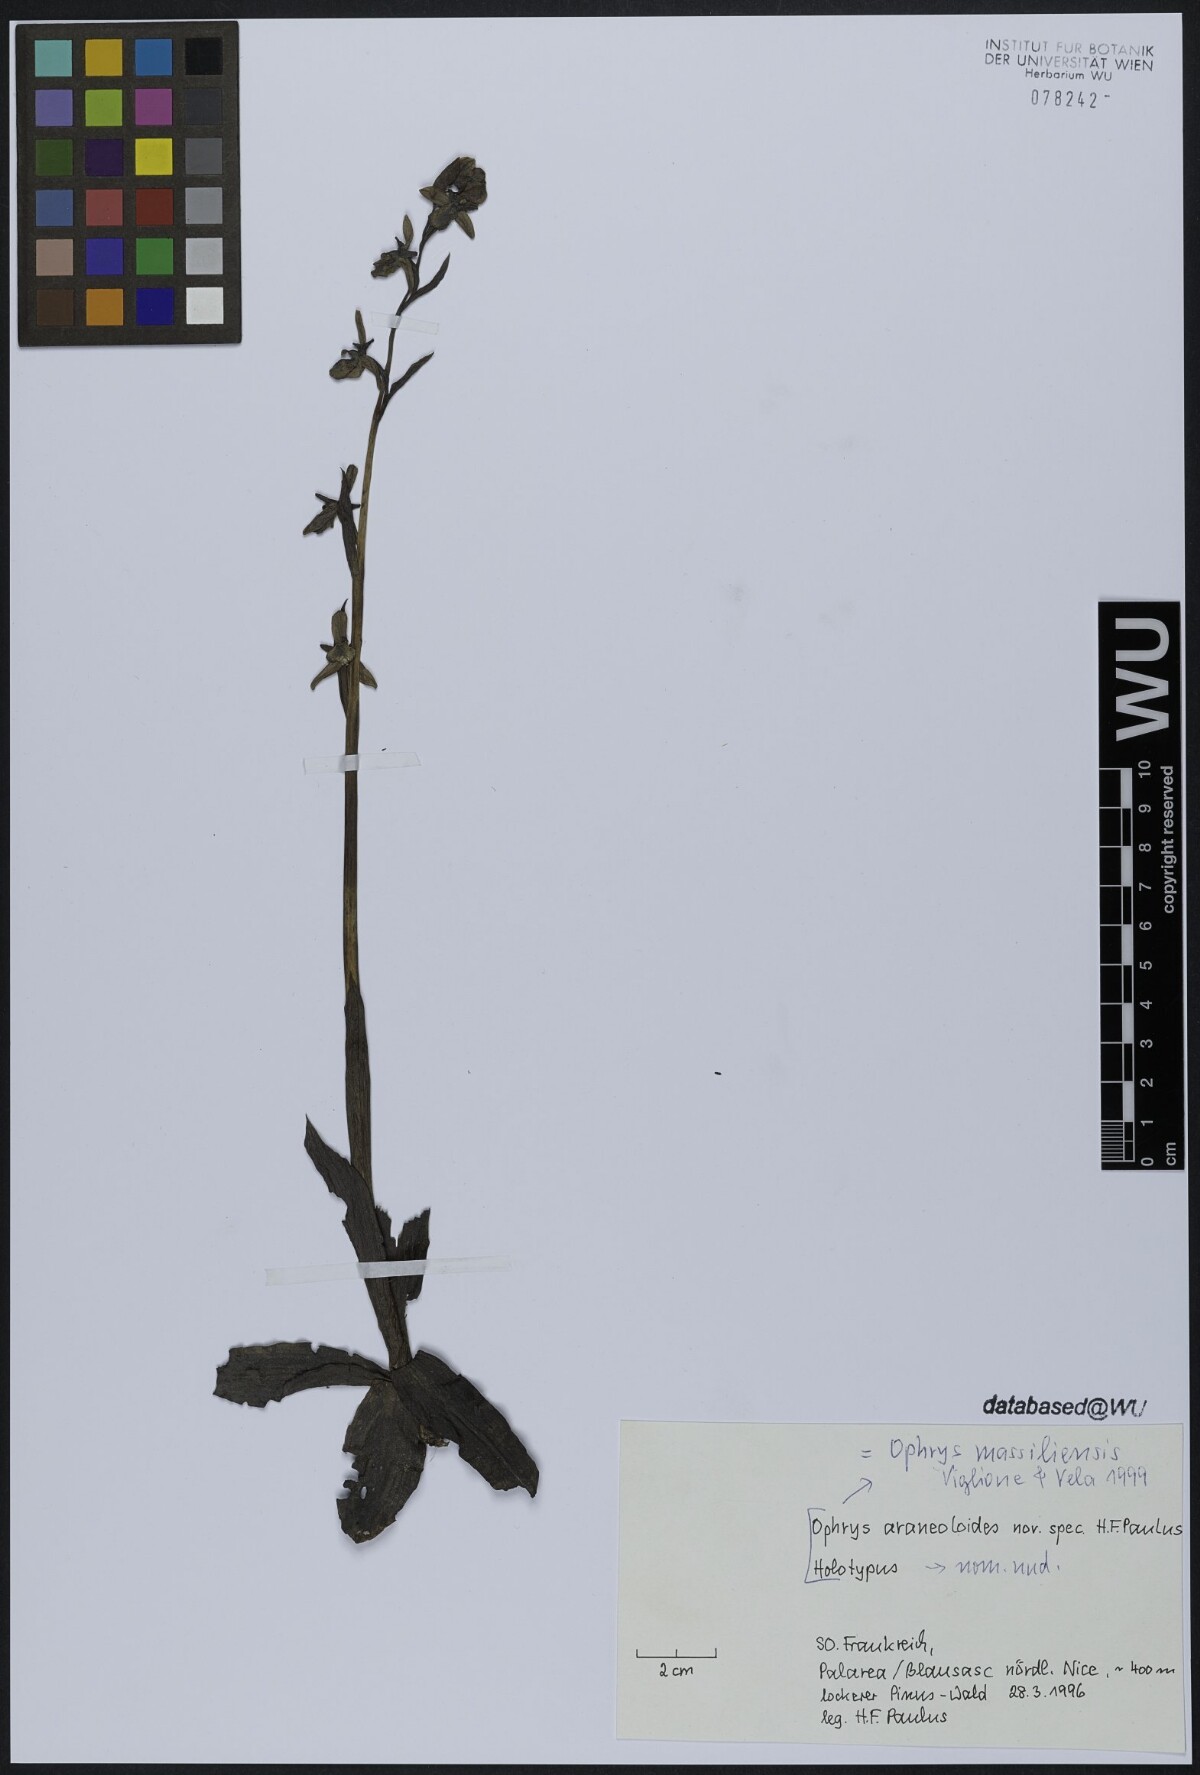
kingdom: Plantae
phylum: Tracheophyta
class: Liliopsida
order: Asparagales
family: Orchidaceae
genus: Ophrys
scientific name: Ophrys
